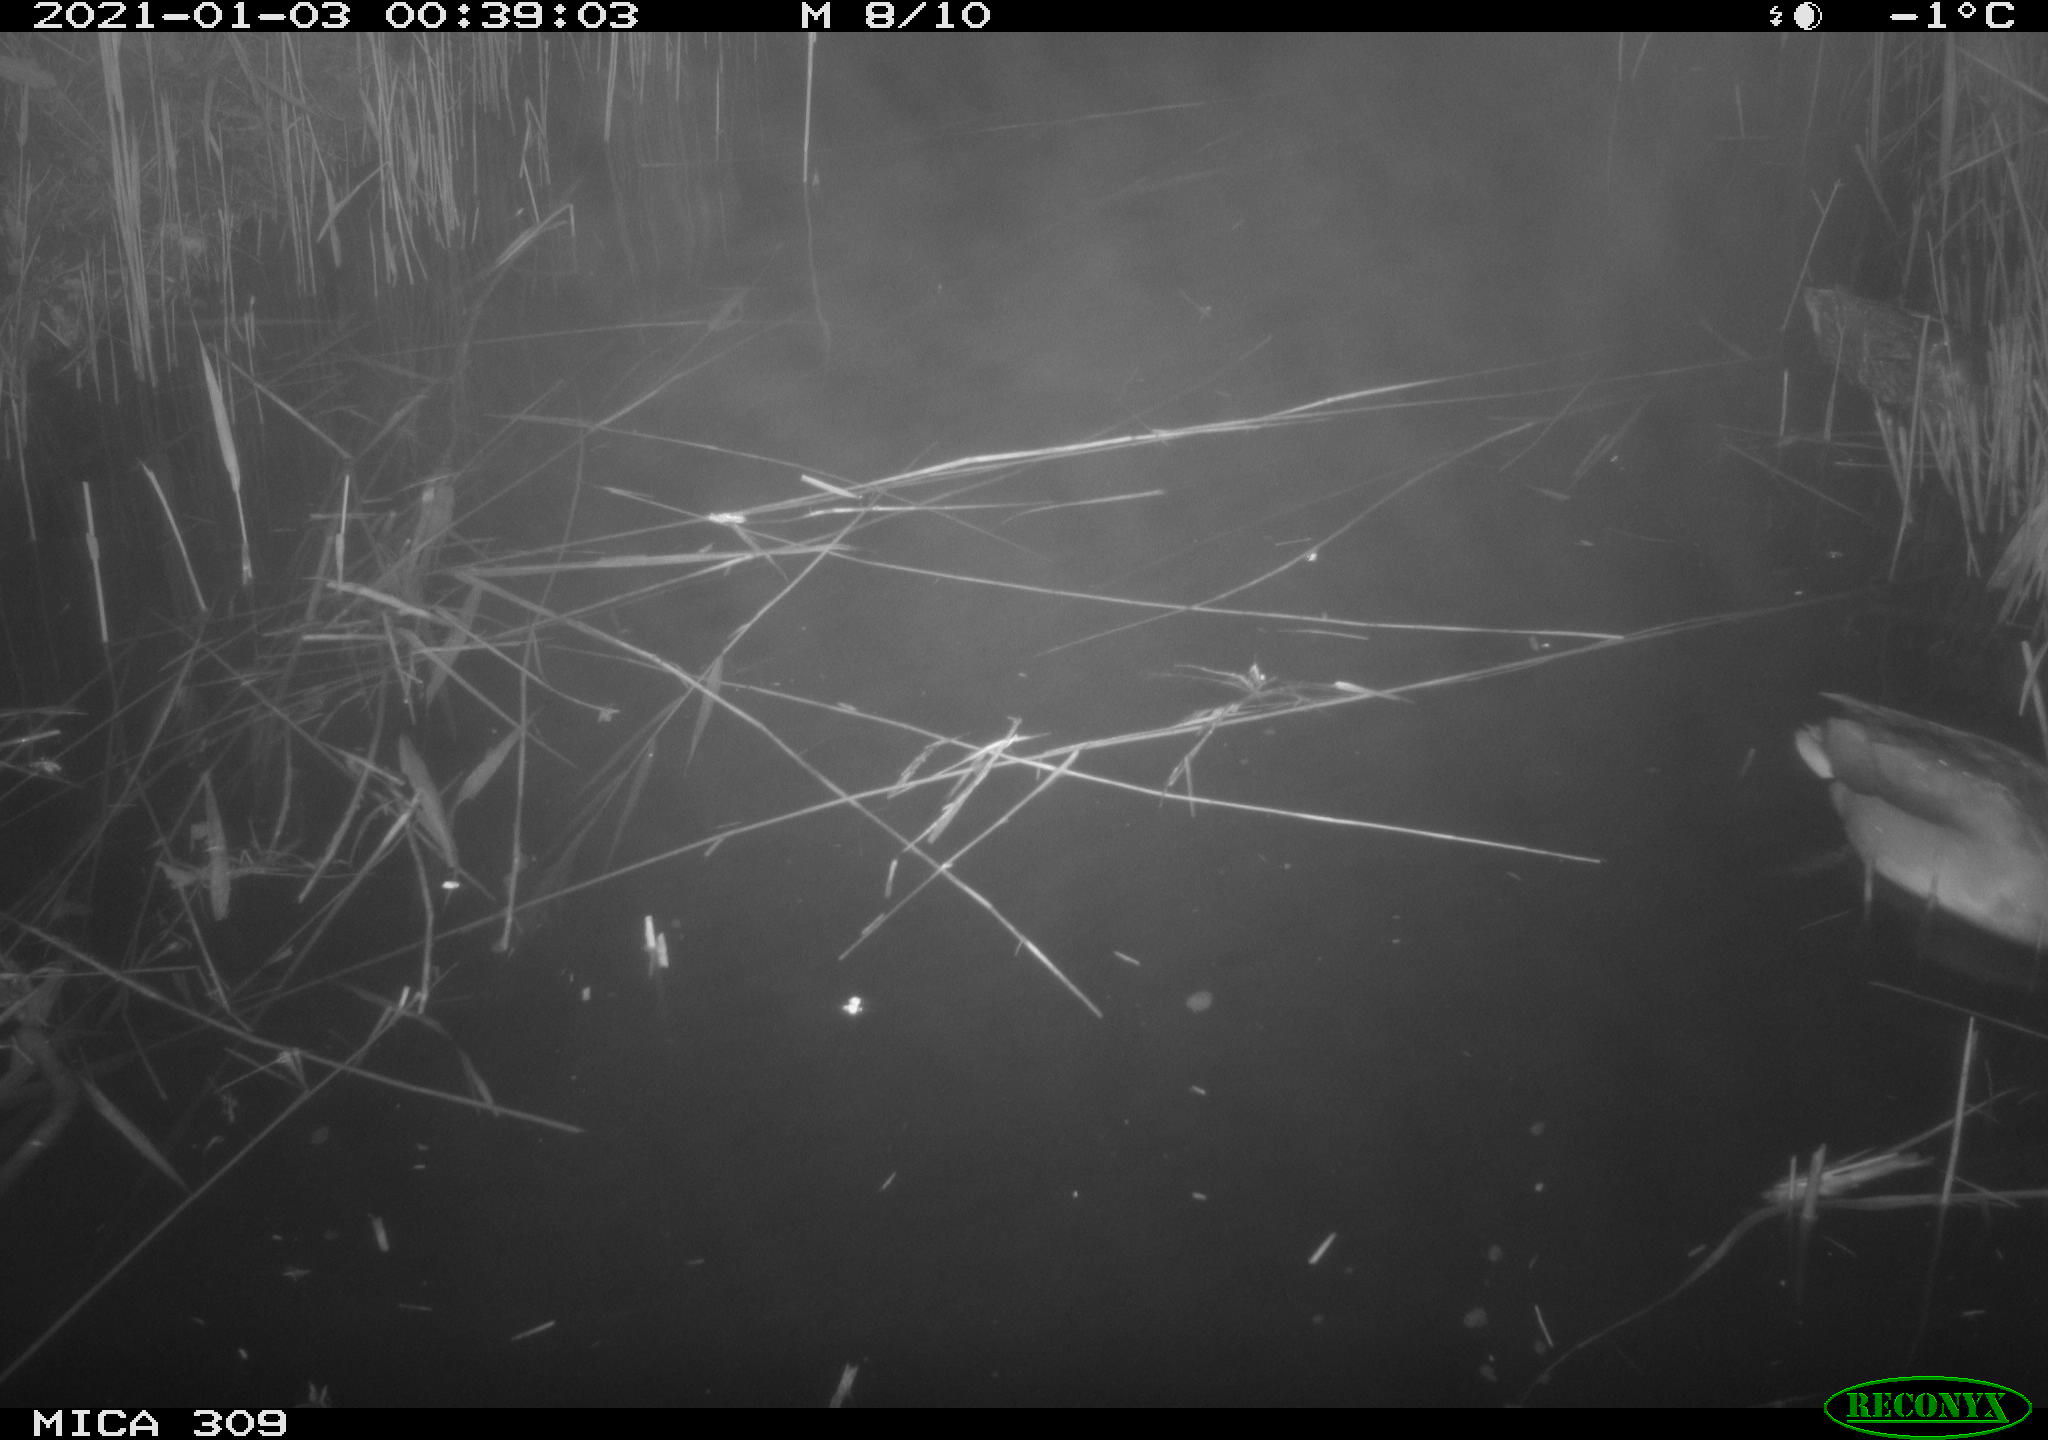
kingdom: Animalia
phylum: Chordata
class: Aves
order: Anseriformes
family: Anatidae
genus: Anas
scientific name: Anas platyrhynchos
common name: Mallard
